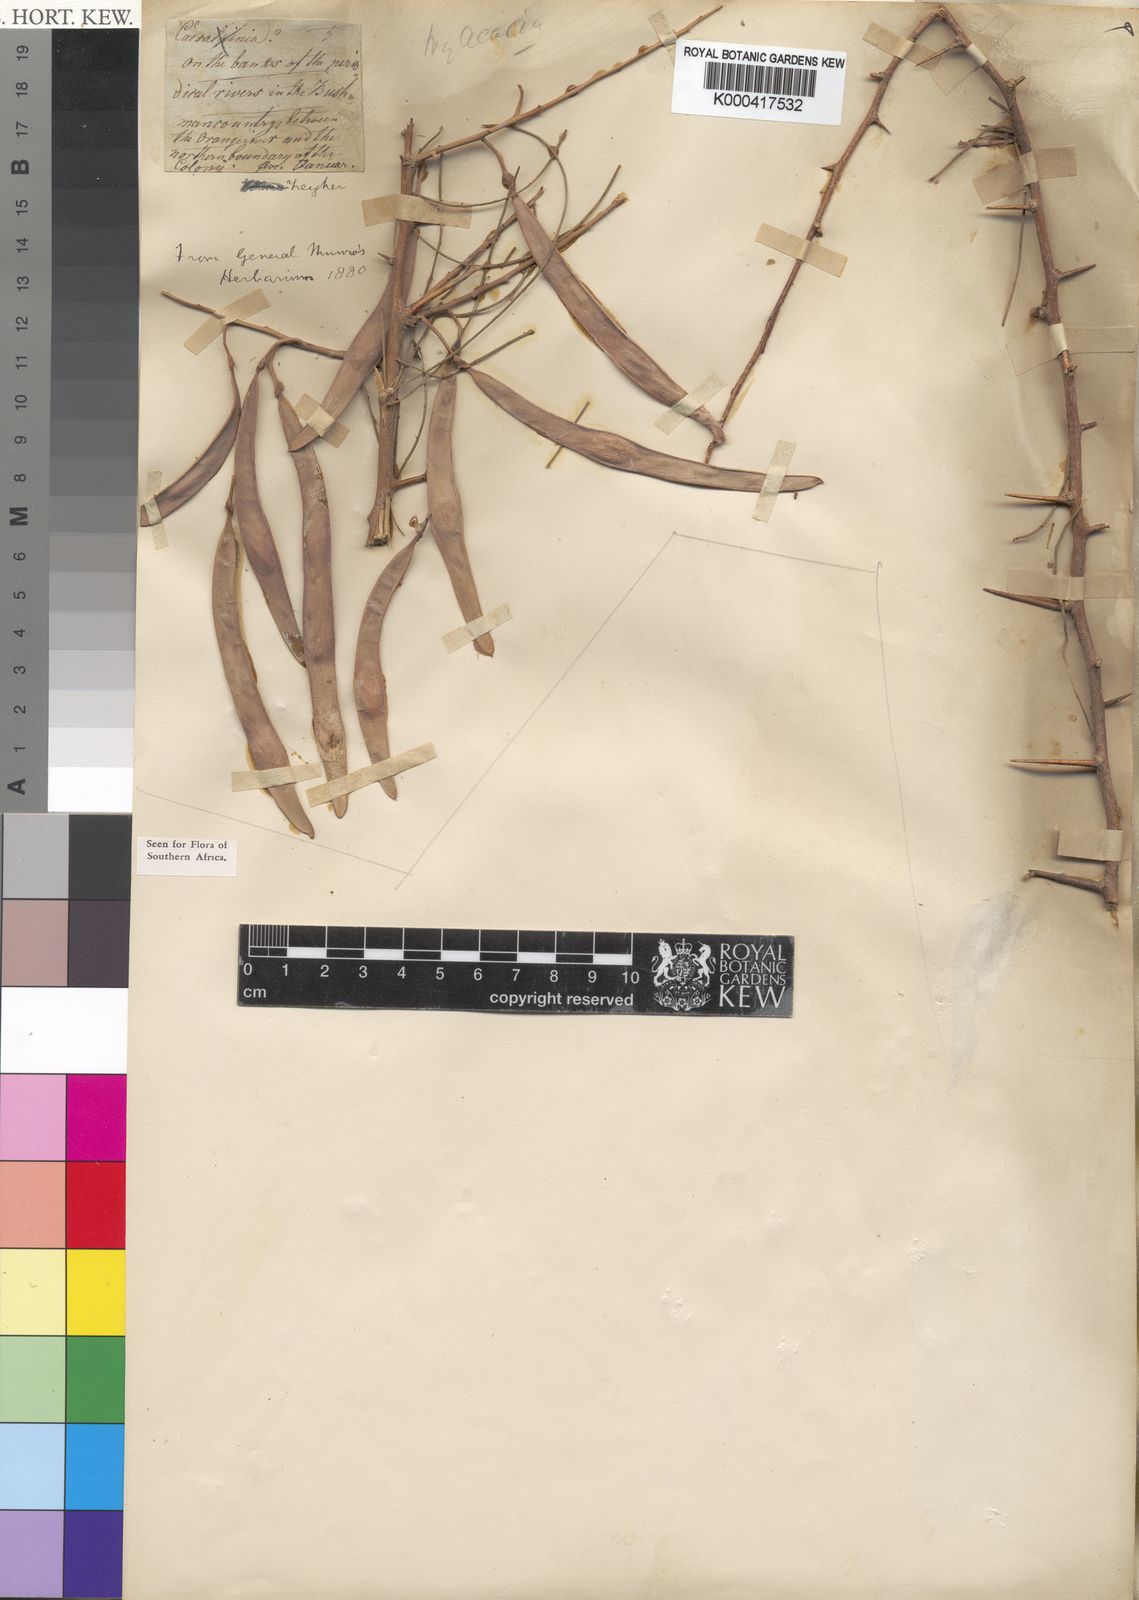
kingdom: Plantae
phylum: Tracheophyta
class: Magnoliopsida
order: Fabales
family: Fabaceae
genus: Parkinsonia
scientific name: Parkinsonia africana
